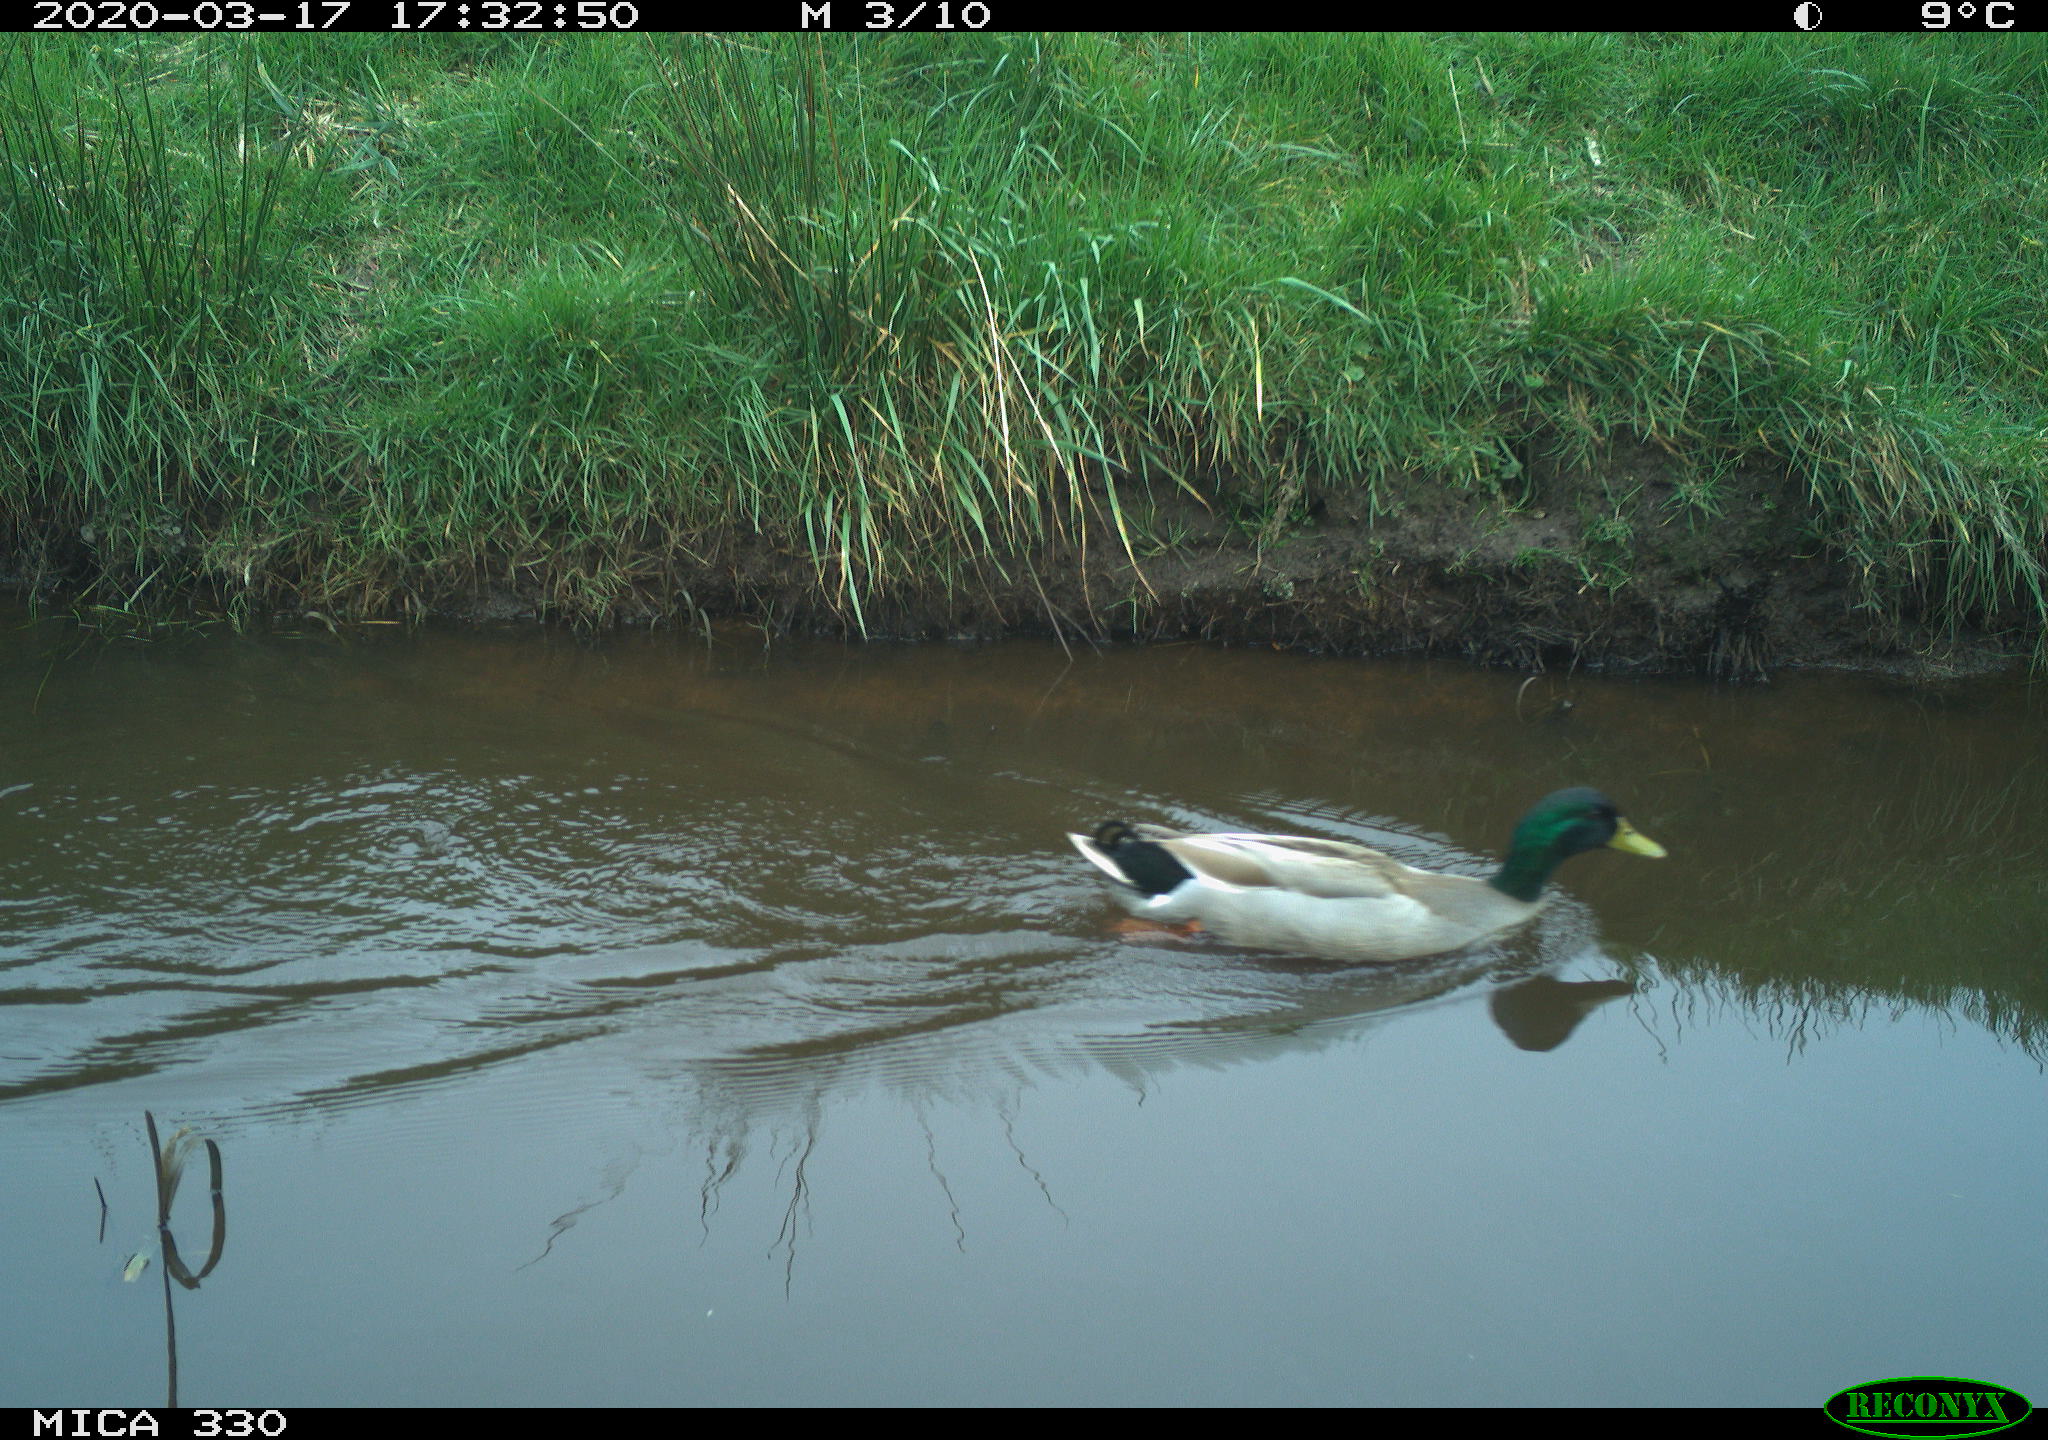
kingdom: Animalia
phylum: Chordata
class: Aves
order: Anseriformes
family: Anatidae
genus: Anas
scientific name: Anas platyrhynchos
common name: Mallard
